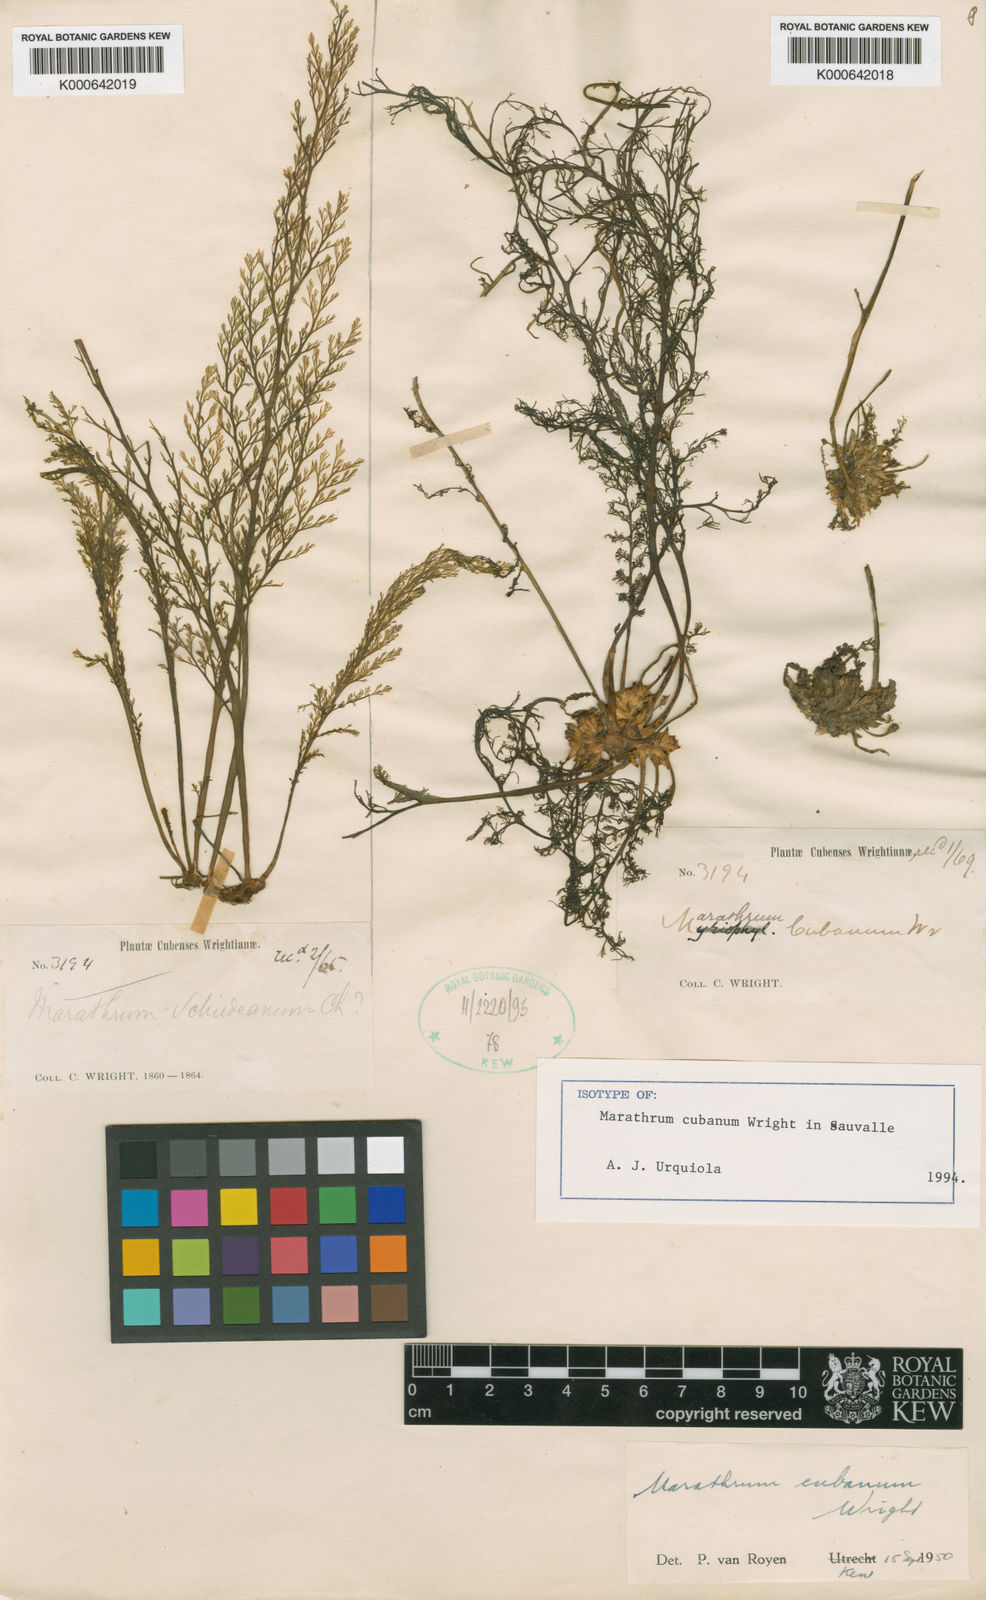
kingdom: Plantae
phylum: Tracheophyta
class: Magnoliopsida
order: Malpighiales
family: Podostemaceae
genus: Marathrum
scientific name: Marathrum cubanum
